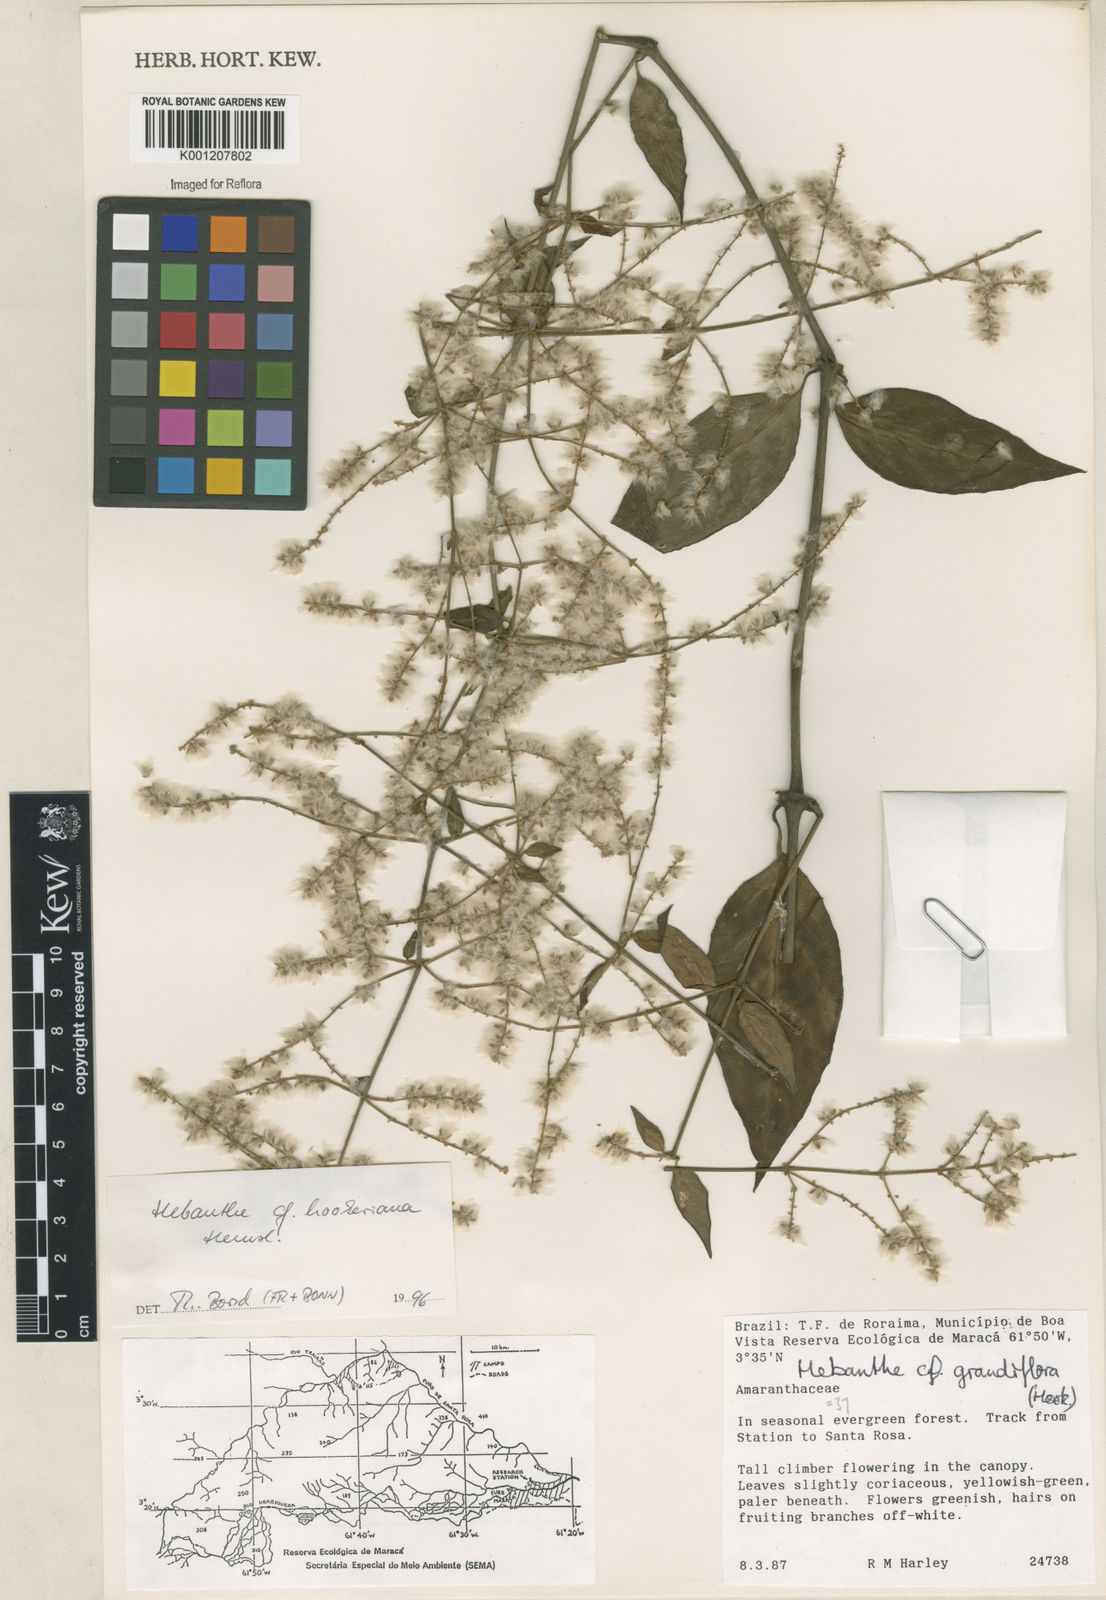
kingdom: Plantae
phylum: Tracheophyta
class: Magnoliopsida
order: Caryophyllales
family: Amaranthaceae
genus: Hebanthe
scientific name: Hebanthe
